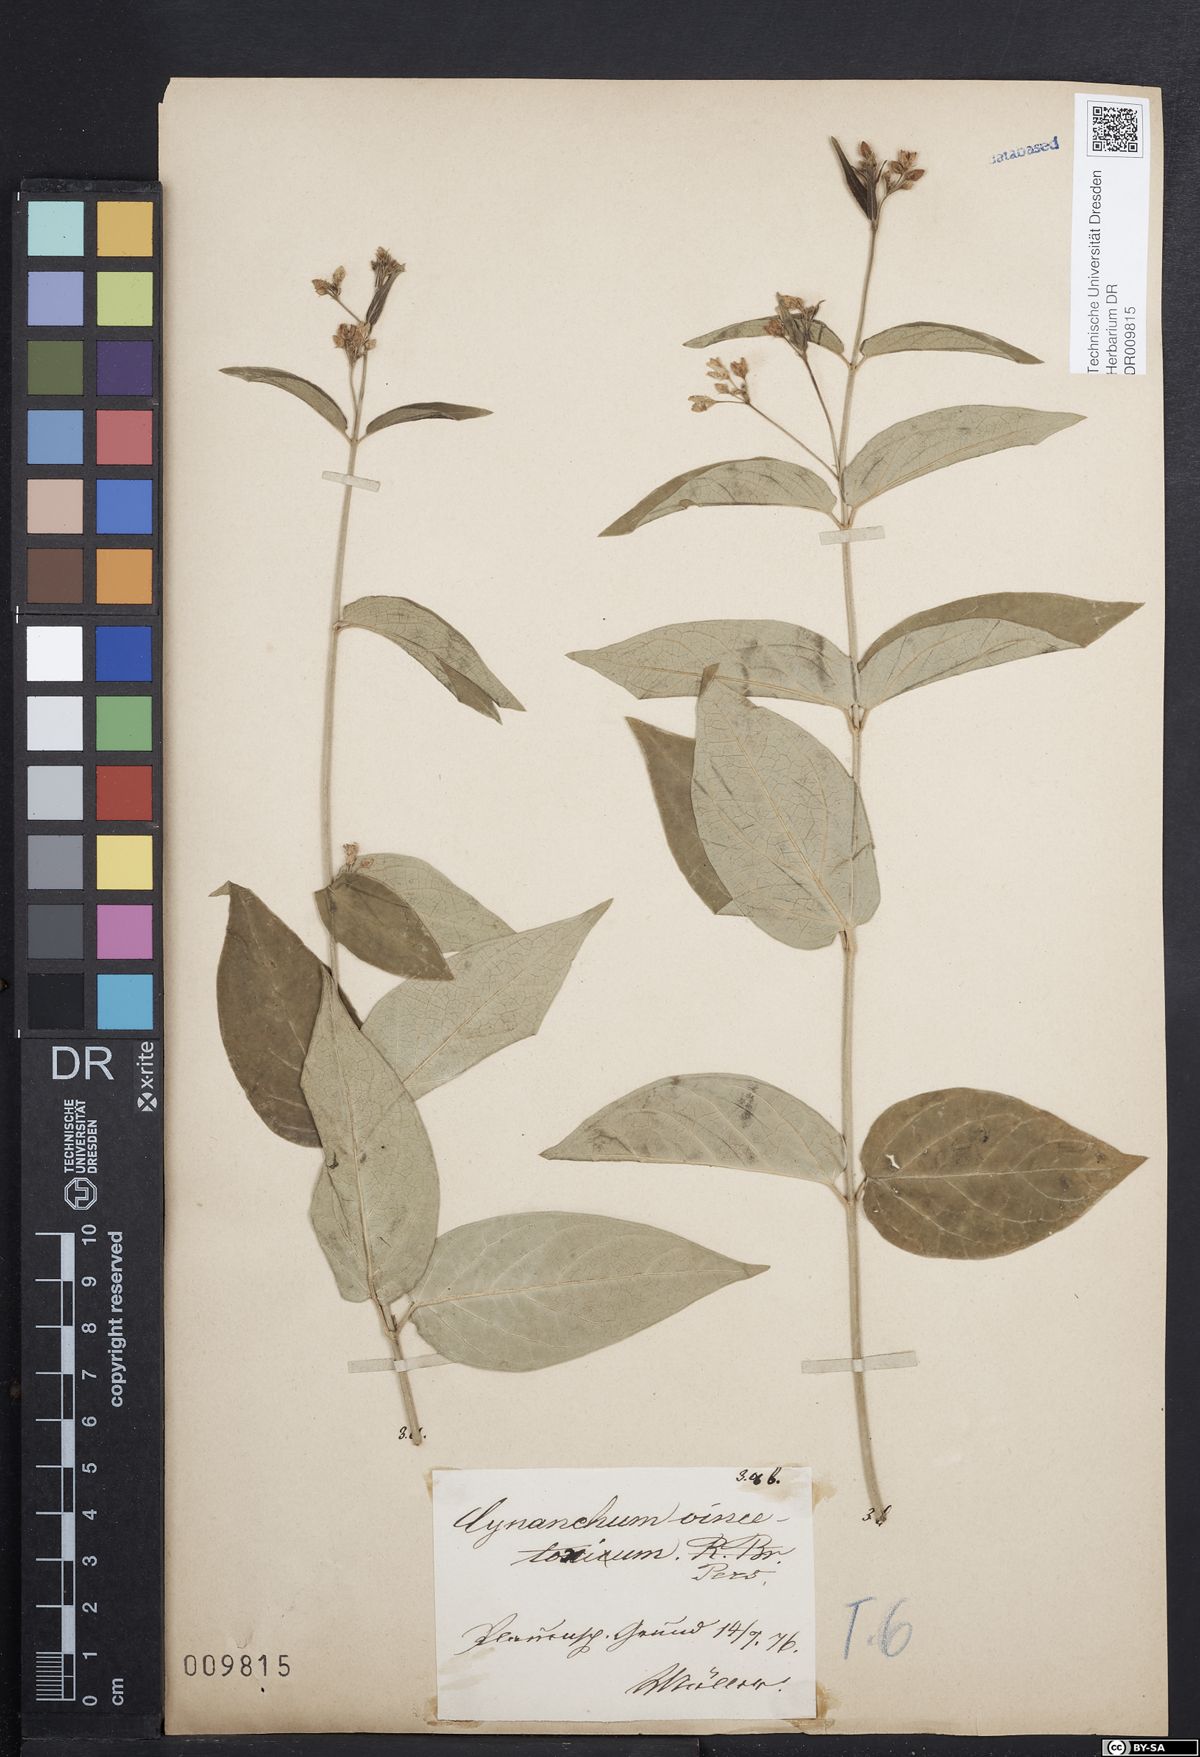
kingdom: Plantae
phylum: Tracheophyta
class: Magnoliopsida
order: Gentianales
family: Apocynaceae
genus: Vincetoxicum
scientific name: Vincetoxicum hirundinaria
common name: White swallowwort
